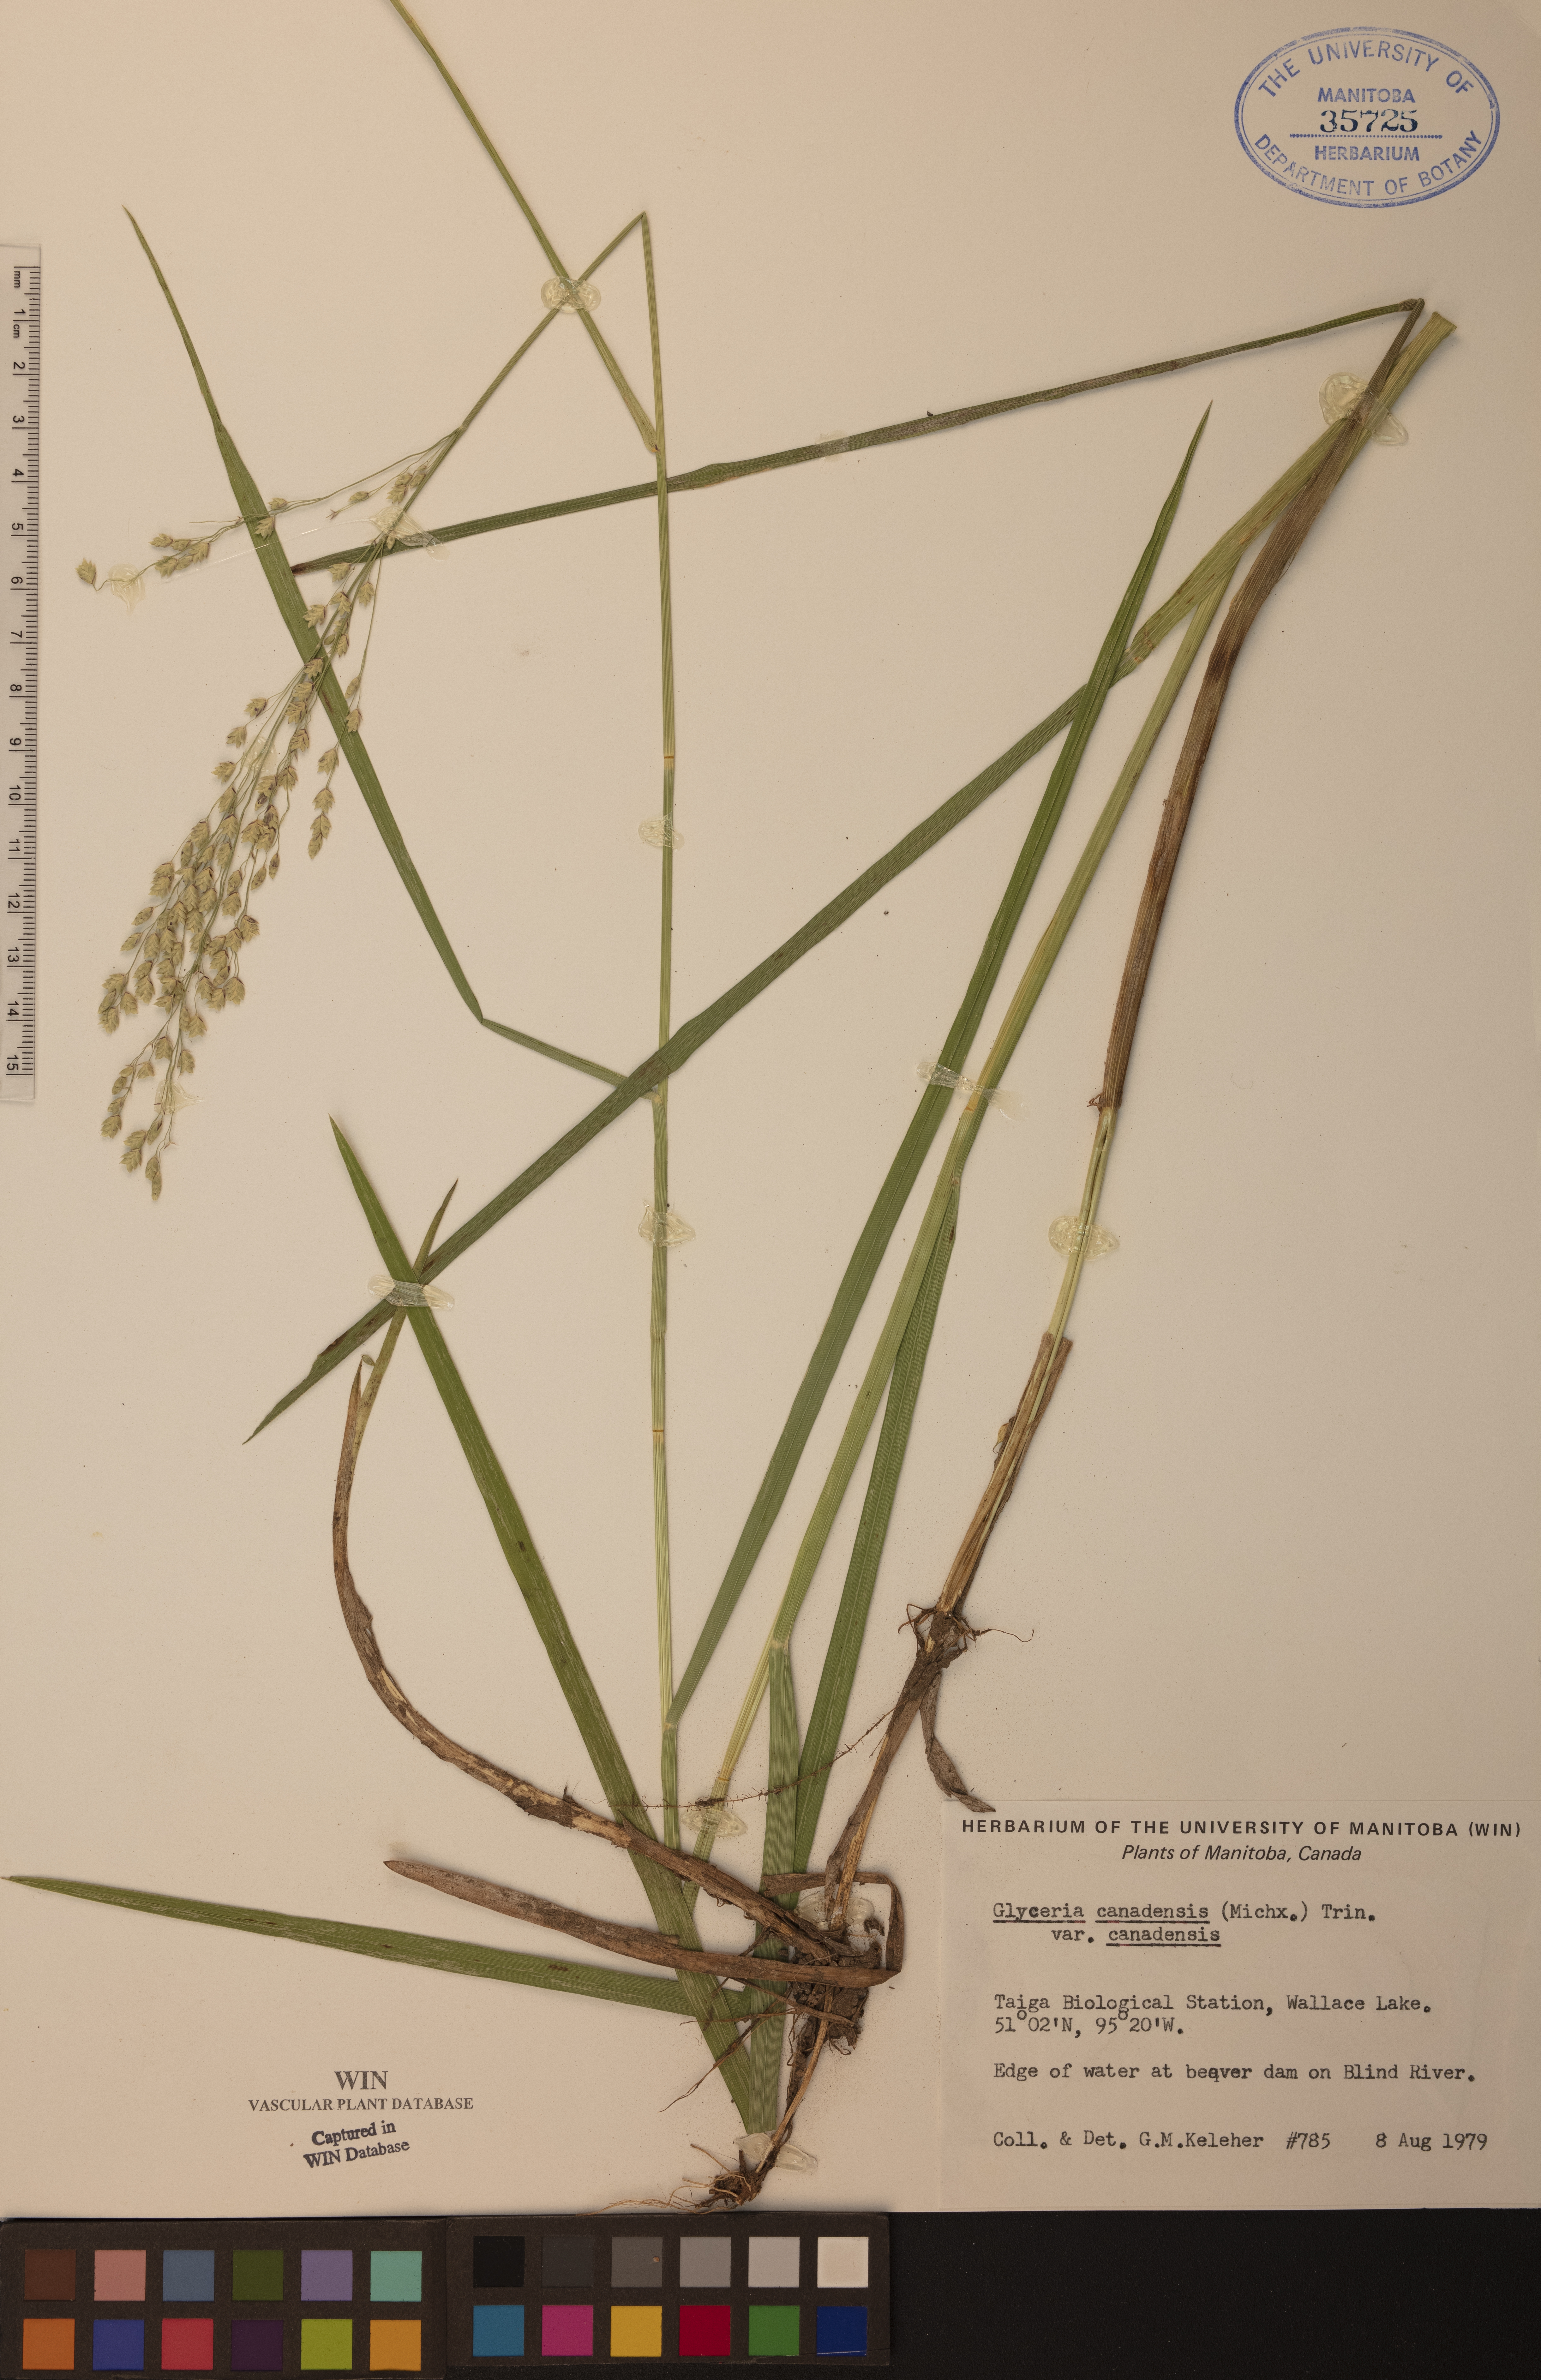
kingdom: Plantae
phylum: Tracheophyta
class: Liliopsida
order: Poales
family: Poaceae
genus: Glyceria
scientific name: Glyceria canadensis
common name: Canada mannagrass
